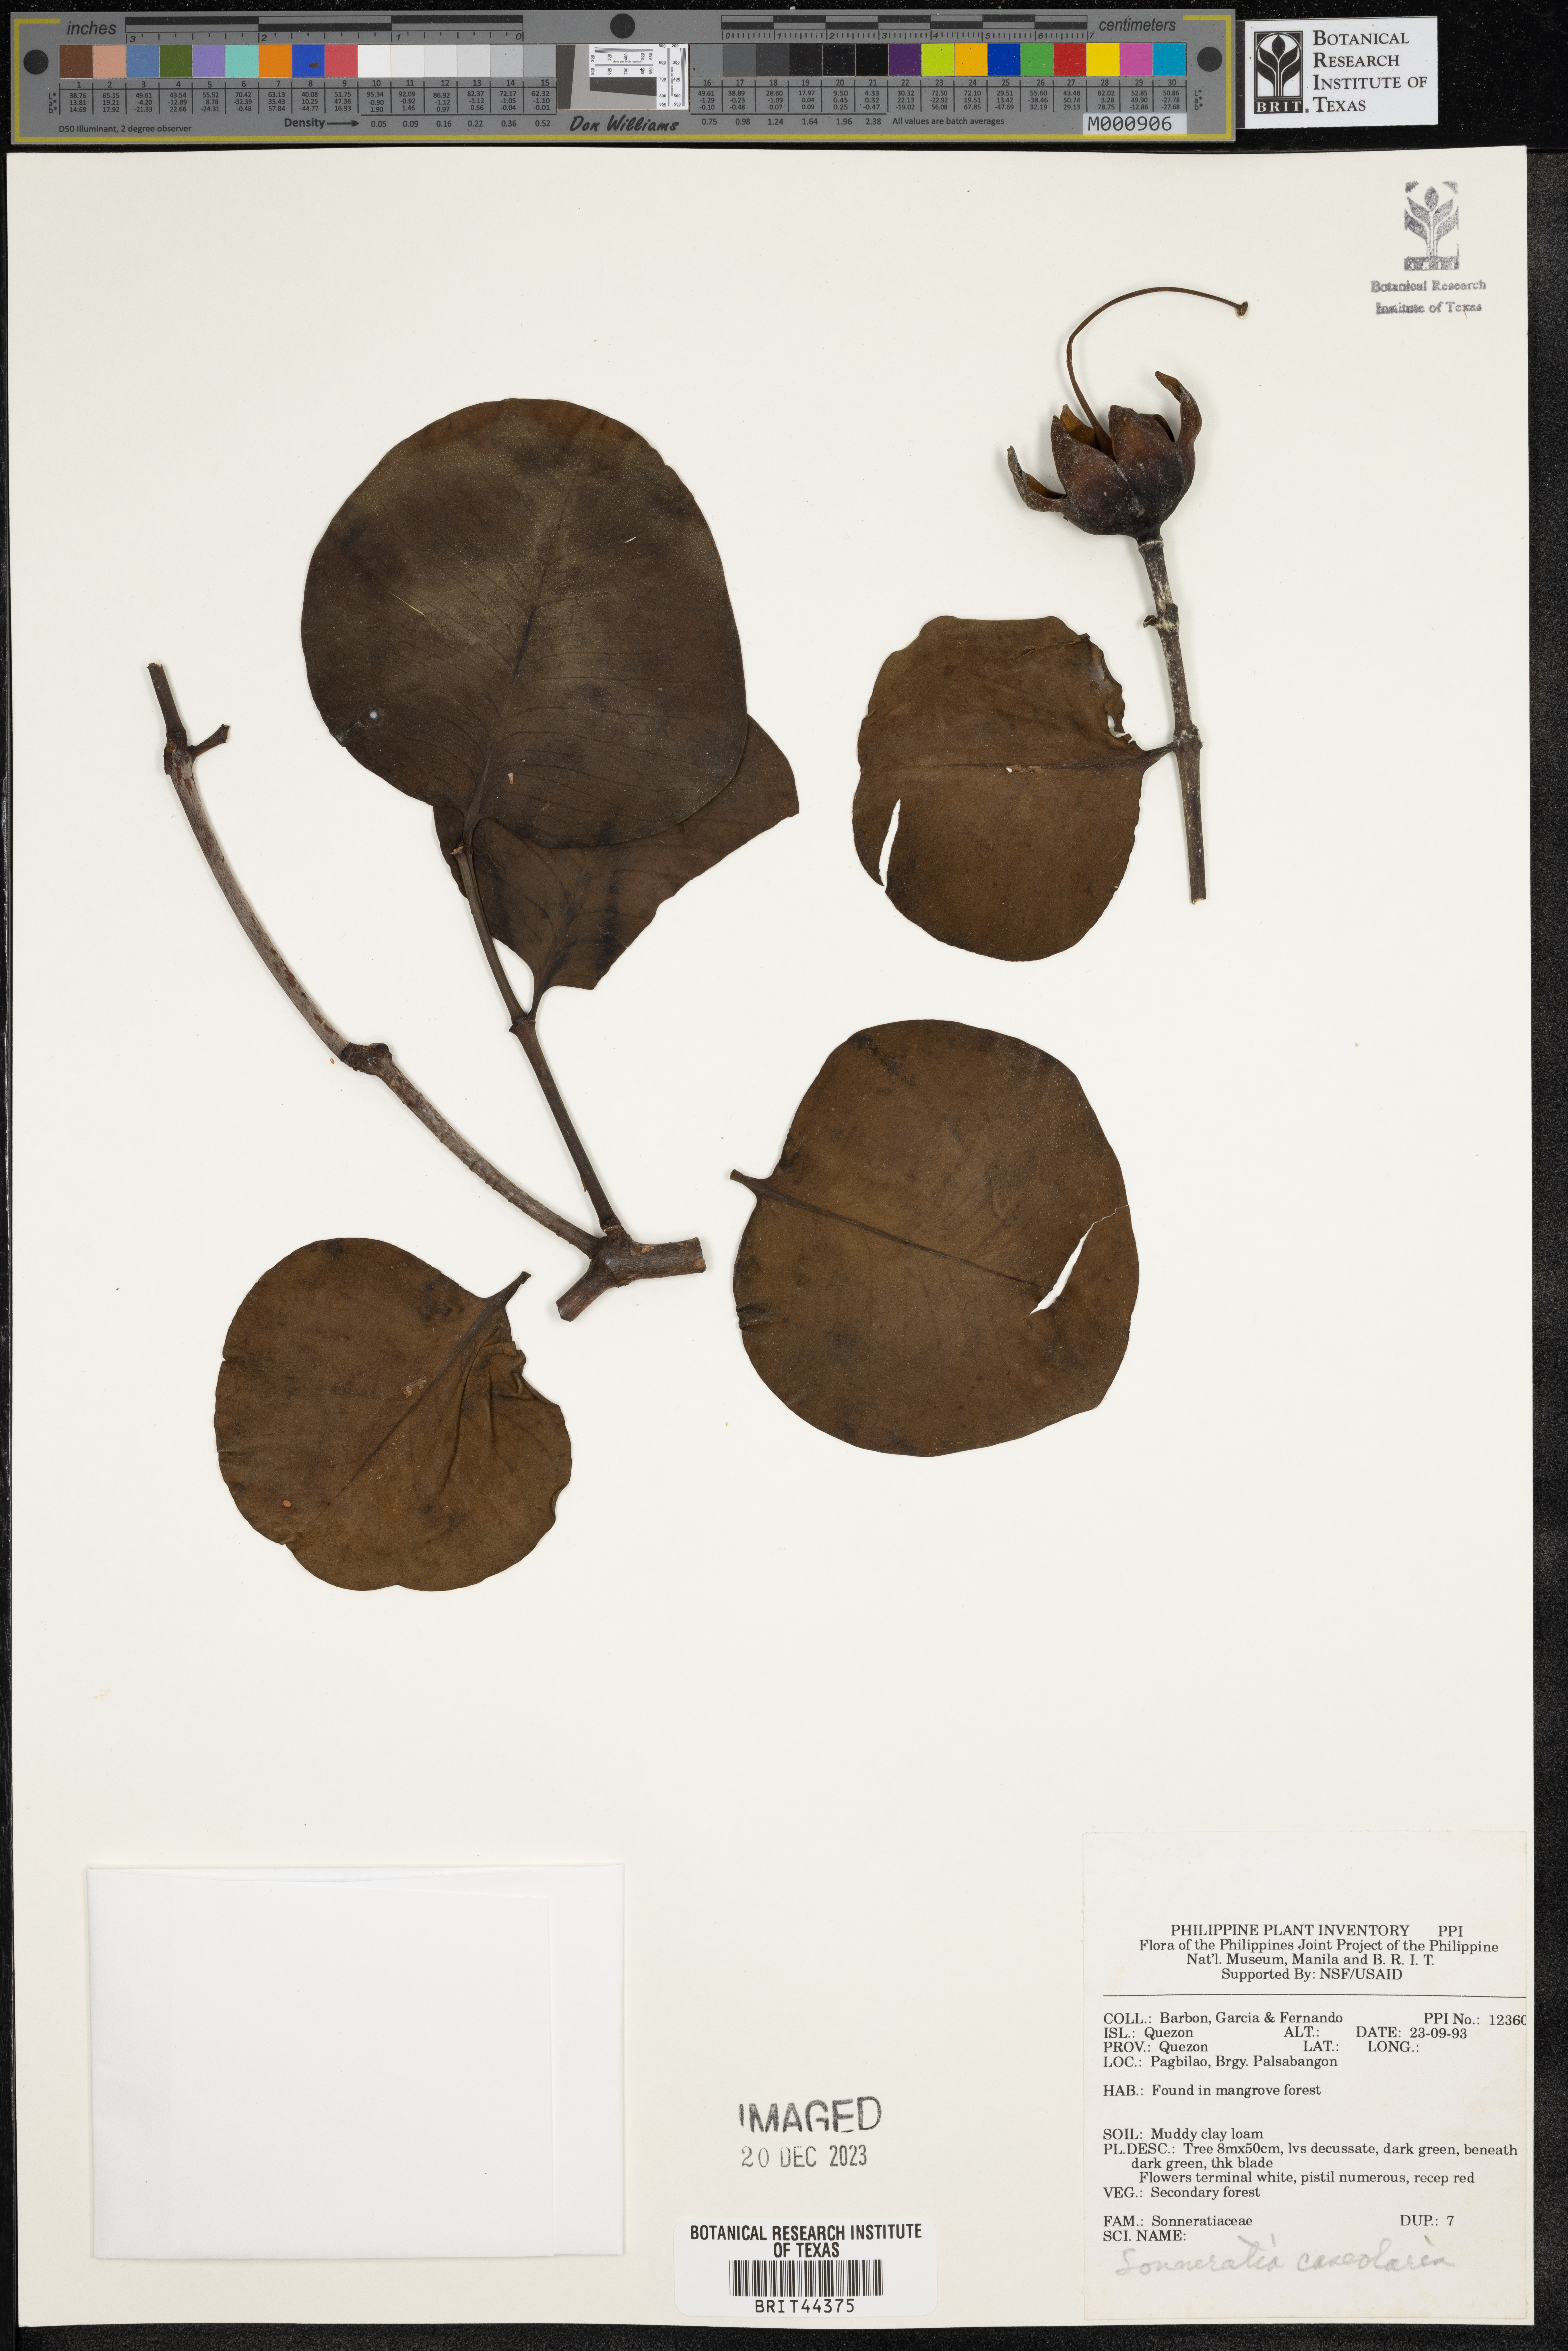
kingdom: Plantae
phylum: Tracheophyta
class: Magnoliopsida
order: Myrtales
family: Lythraceae
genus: Sonneratia
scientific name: Sonneratia caseolaris
